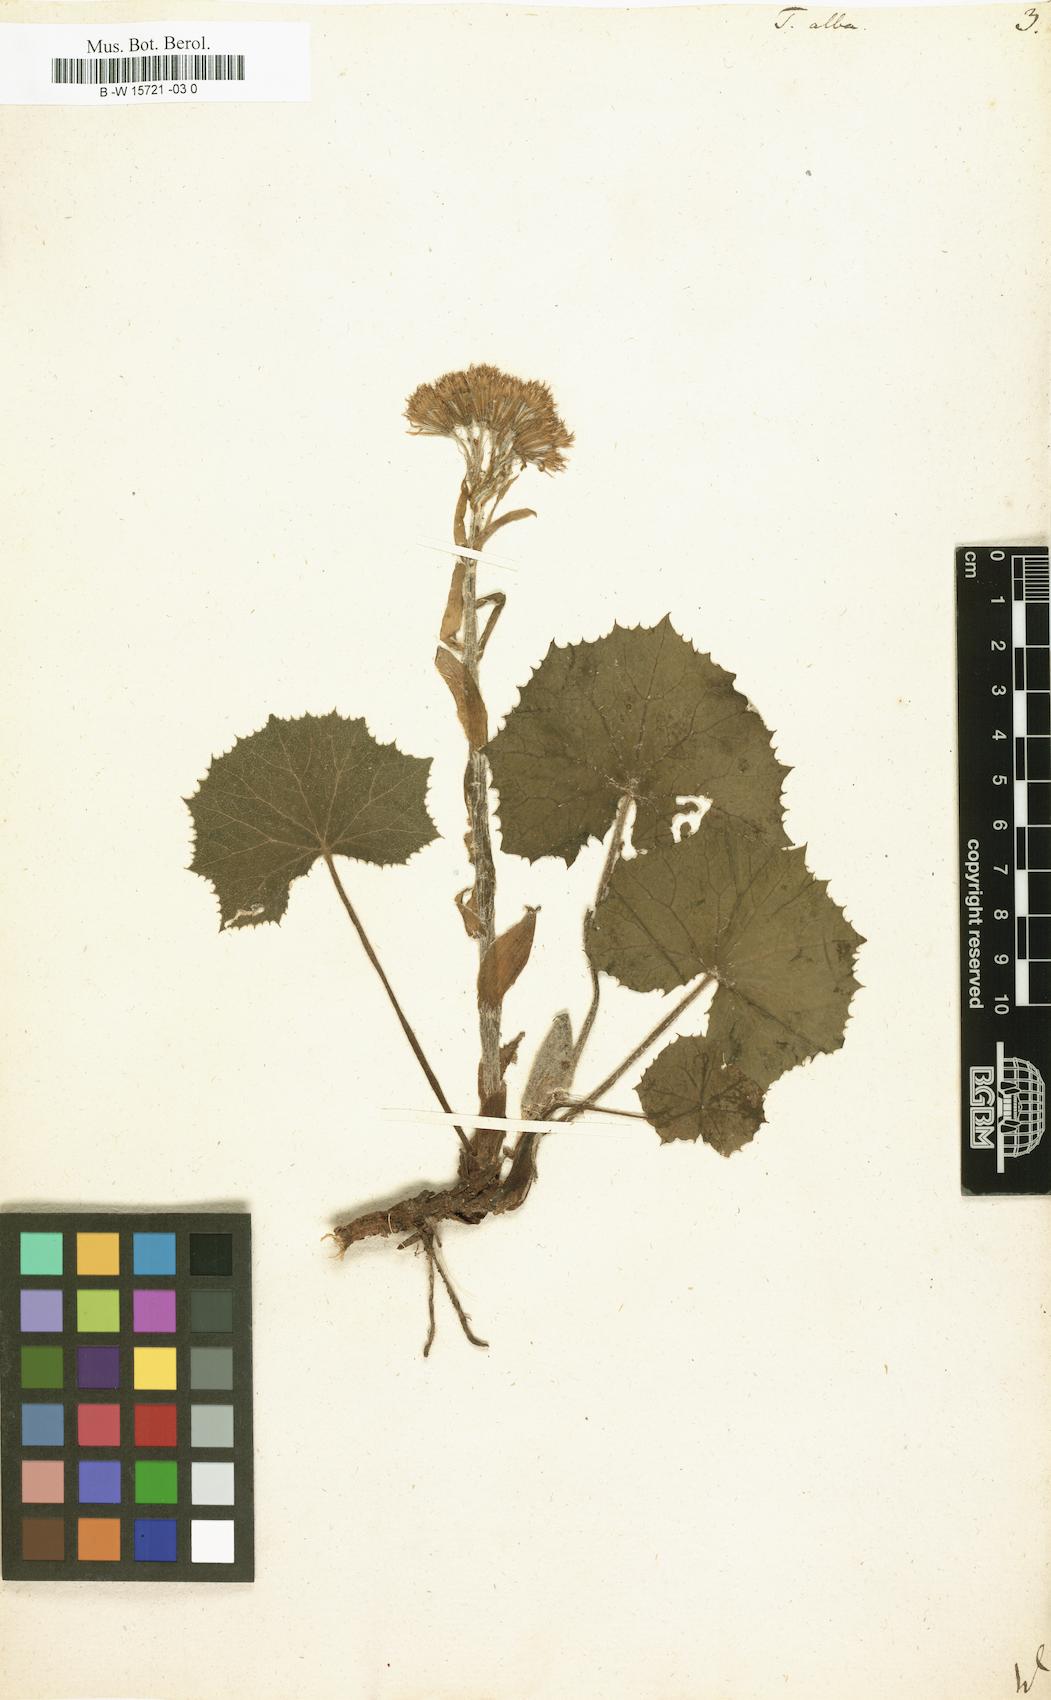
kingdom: Plantae
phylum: Tracheophyta
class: Magnoliopsida
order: Asterales
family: Asteraceae
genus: Petasites
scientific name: Petasites albus
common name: White butterbur
